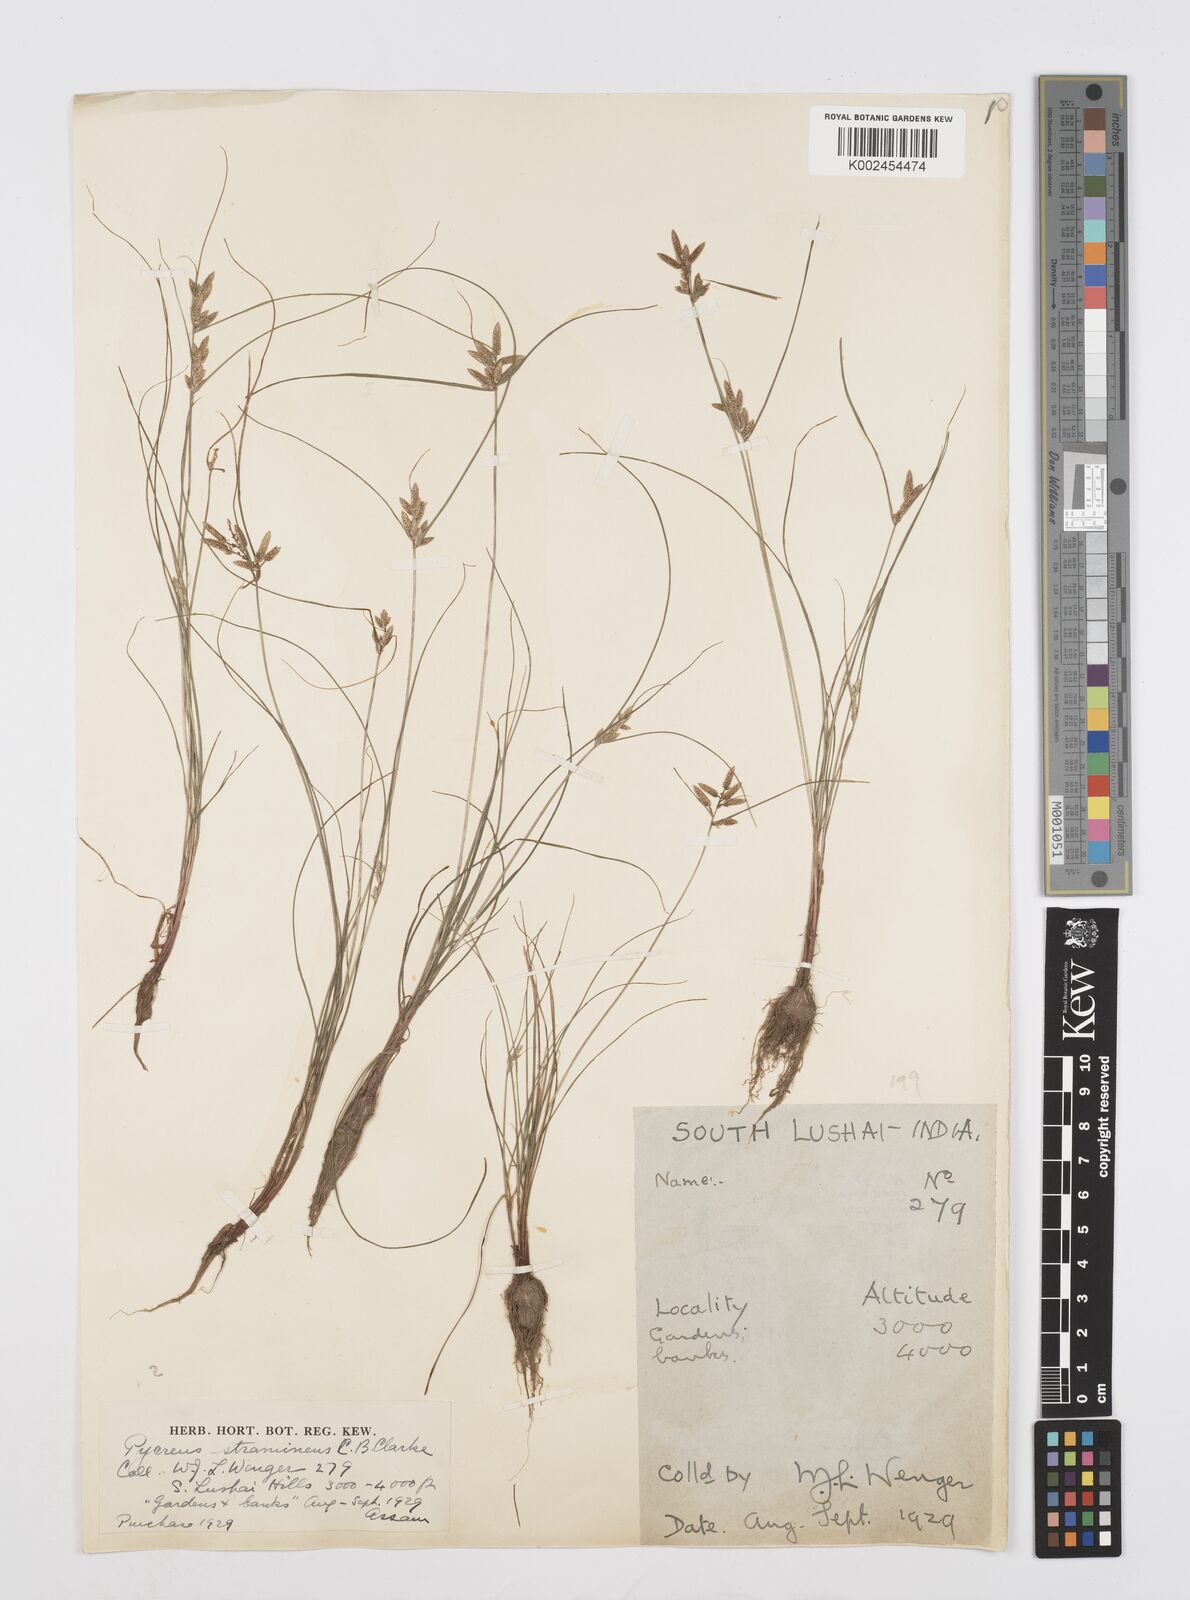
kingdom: Plantae
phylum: Tracheophyta
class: Liliopsida
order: Poales
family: Cyperaceae
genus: Cyperus
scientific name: Cyperus substramineus
